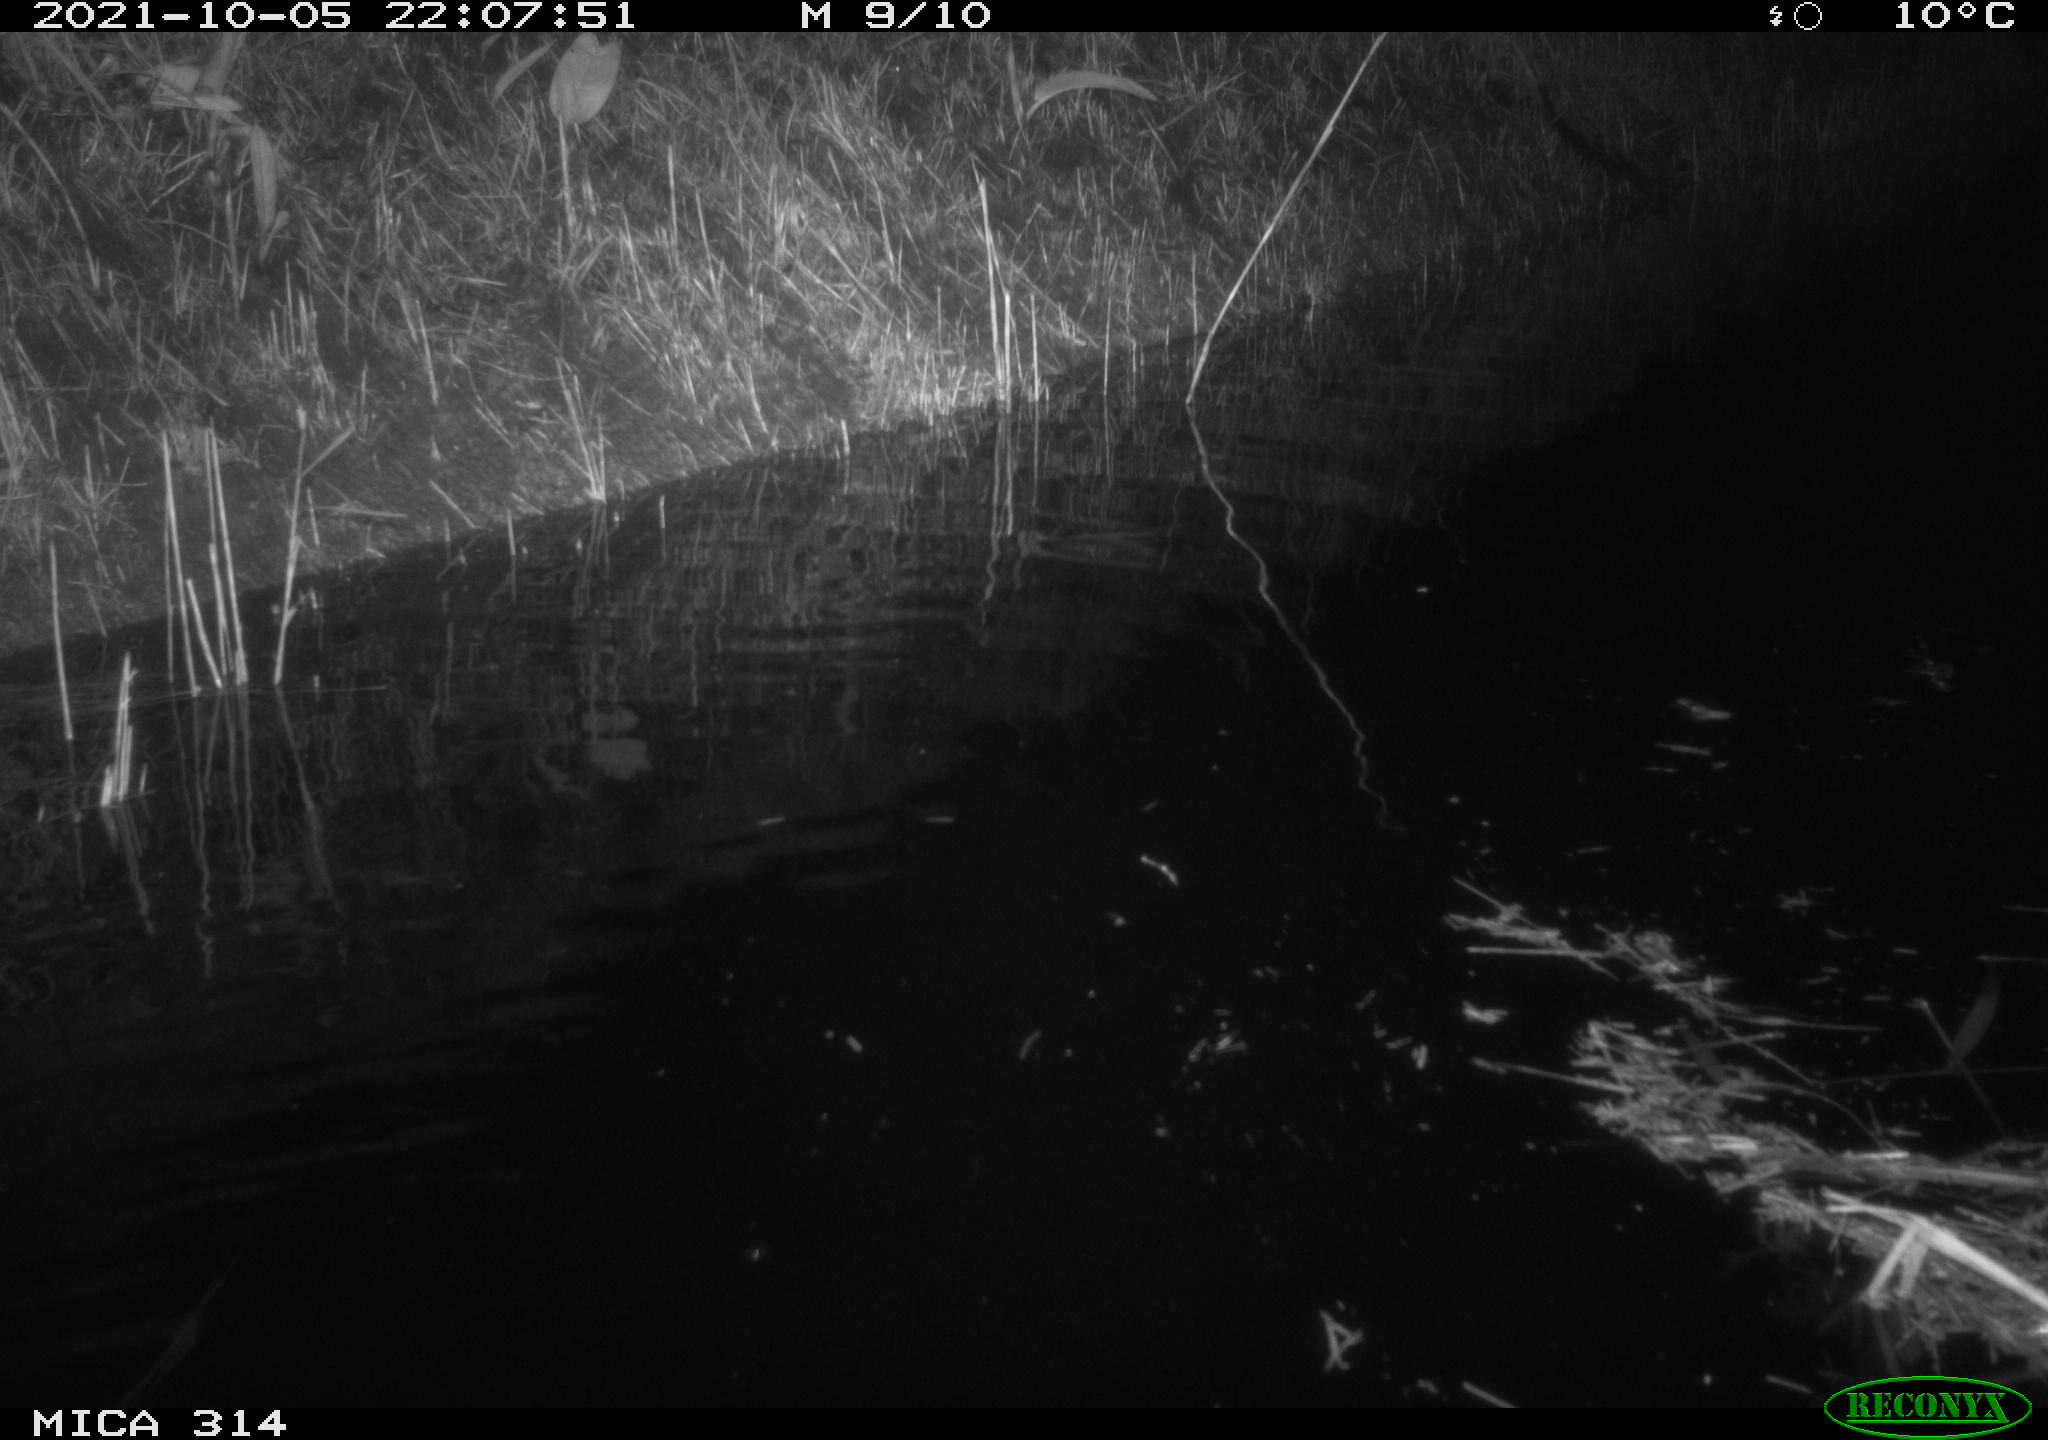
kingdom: Animalia
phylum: Chordata
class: Mammalia
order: Rodentia
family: Muridae
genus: Rattus
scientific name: Rattus norvegicus
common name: Brown rat
